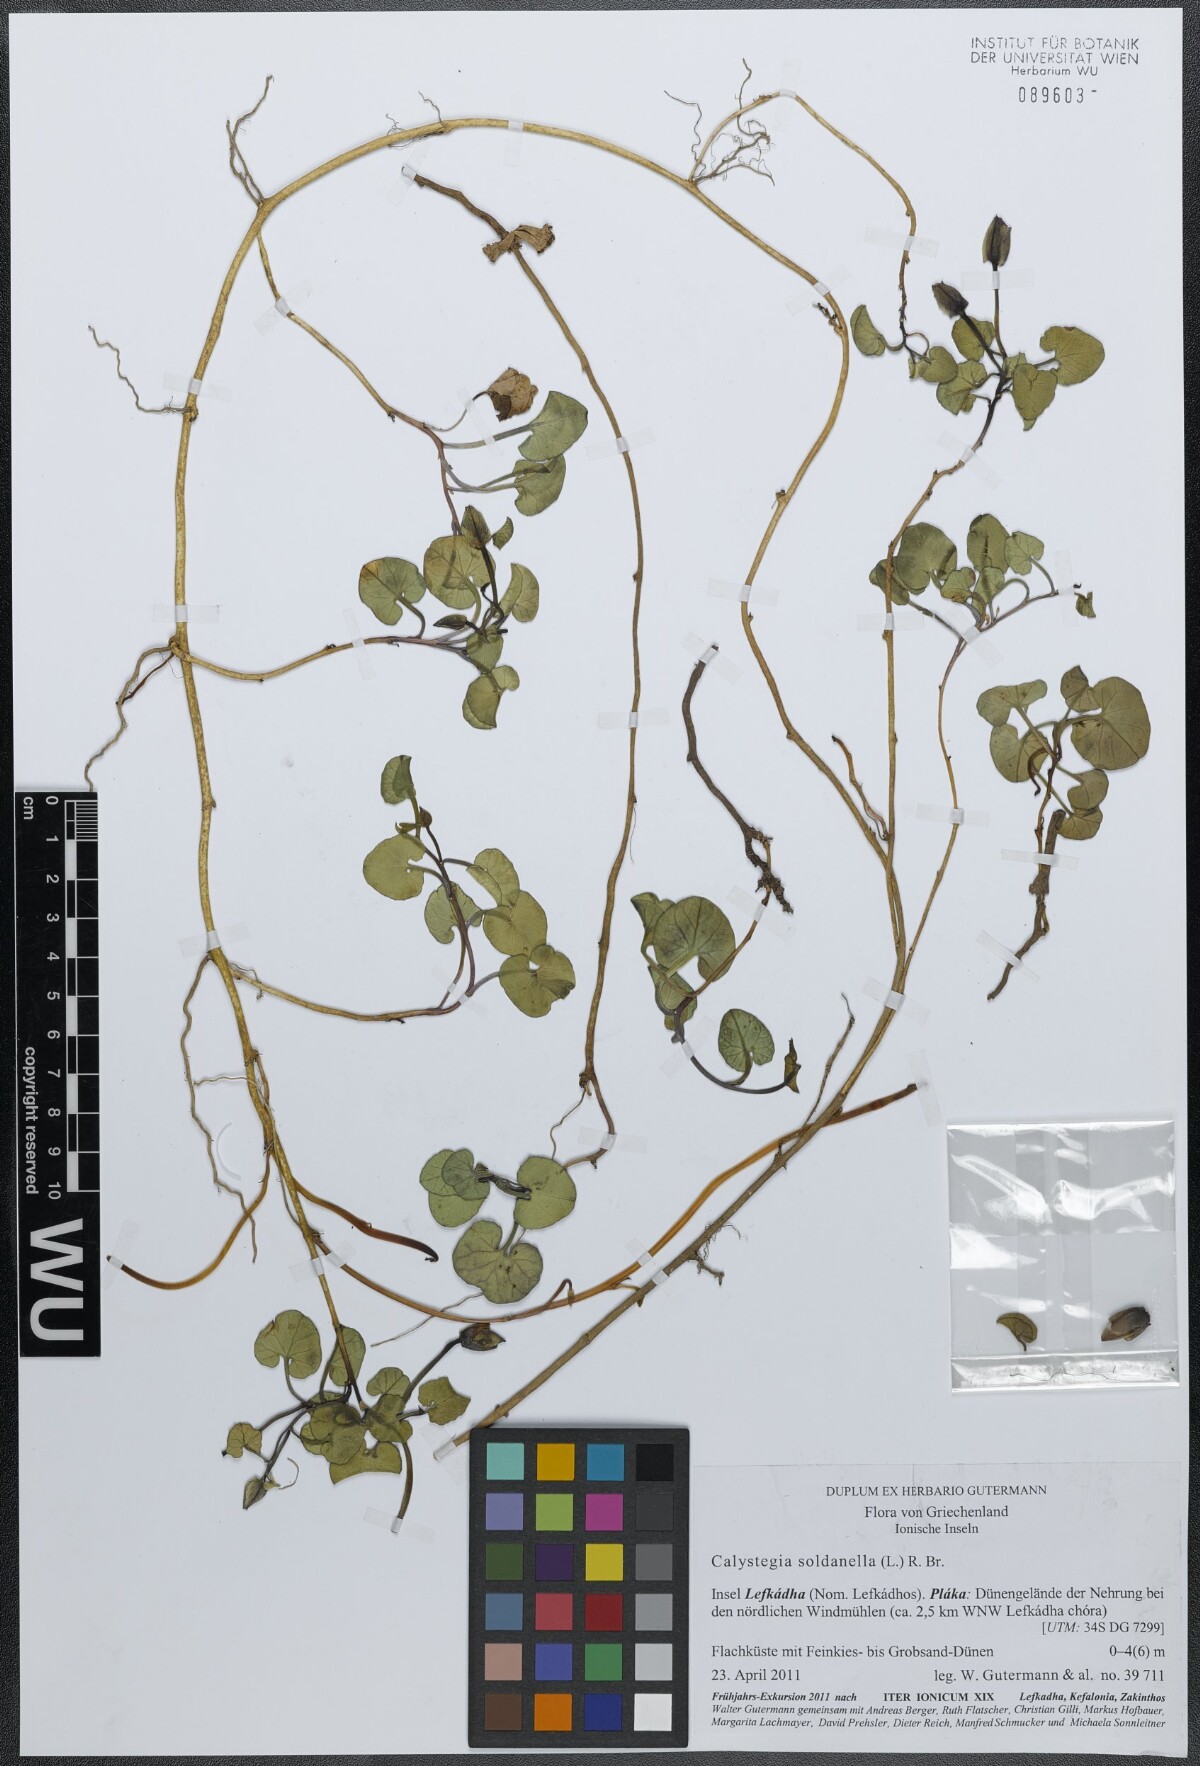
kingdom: Plantae
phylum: Tracheophyta
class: Magnoliopsida
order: Solanales
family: Convolvulaceae
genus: Calystegia
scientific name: Calystegia soldanella
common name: Sea bindweed
